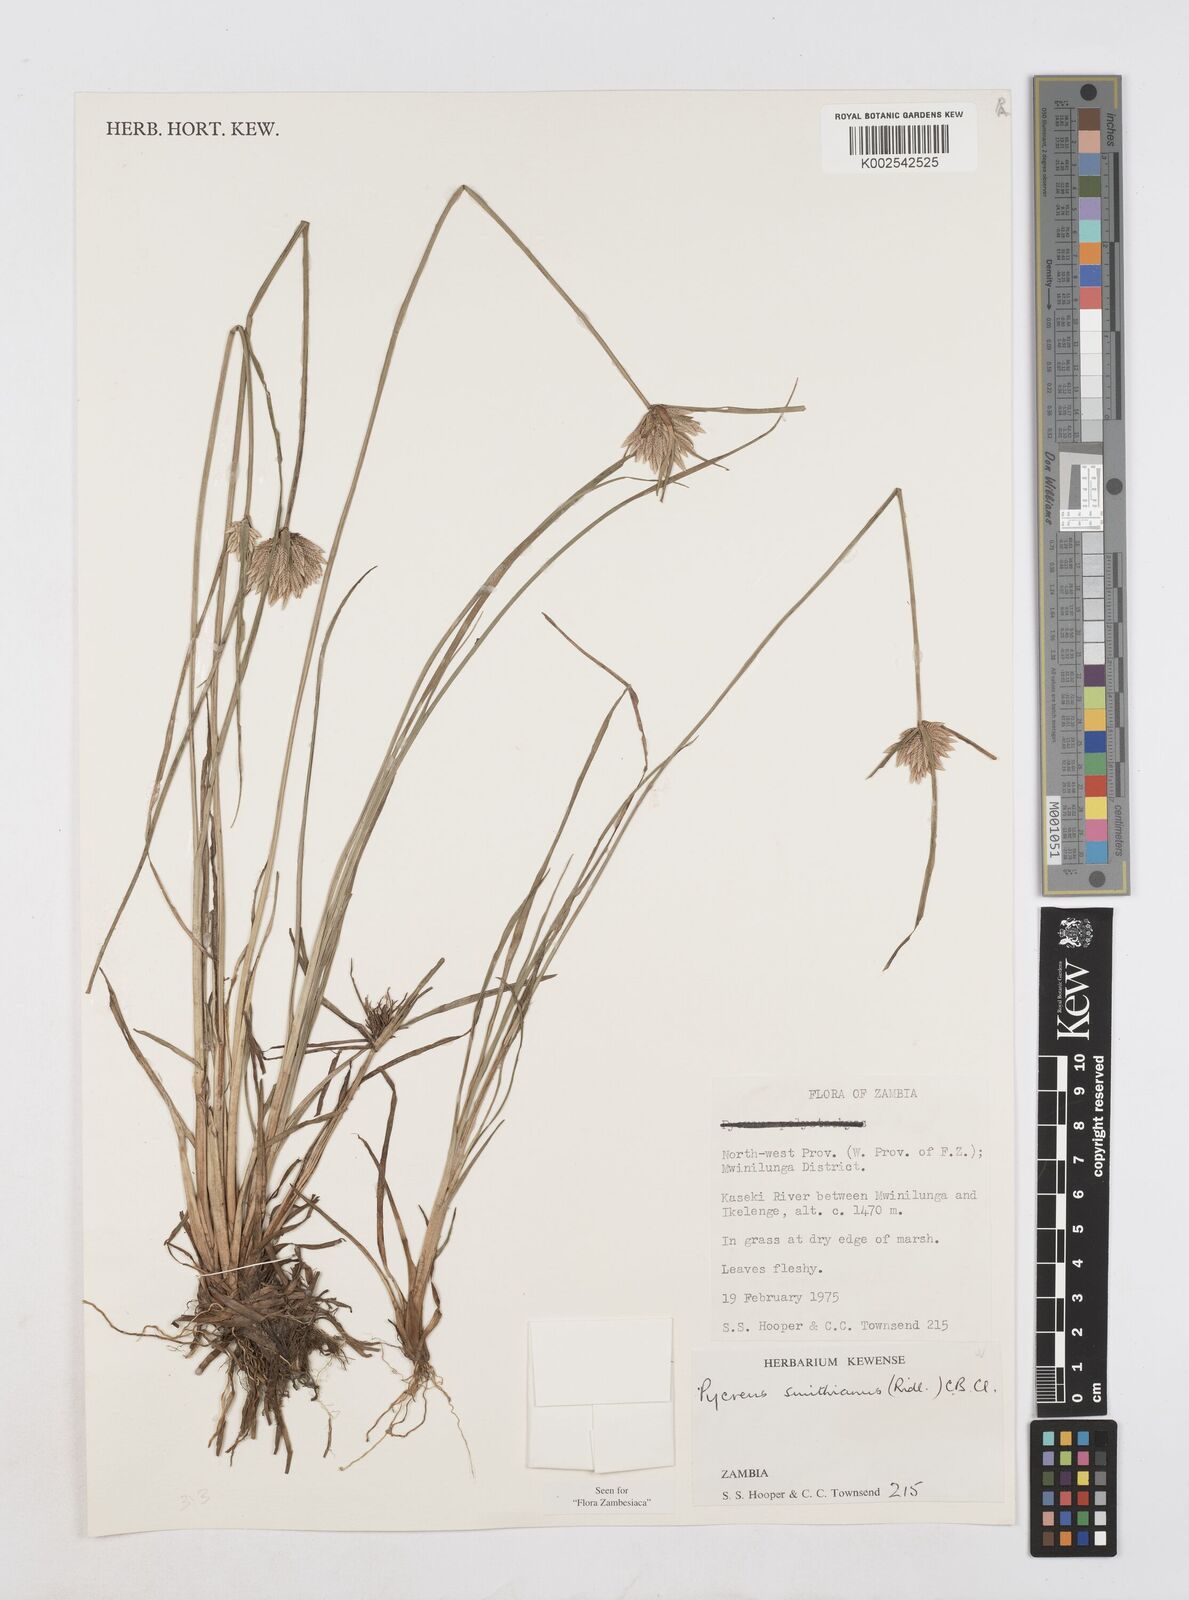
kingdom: Plantae
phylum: Tracheophyta
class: Liliopsida
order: Poales
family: Cyperaceae
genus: Cyperus
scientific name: Cyperus smithianus
